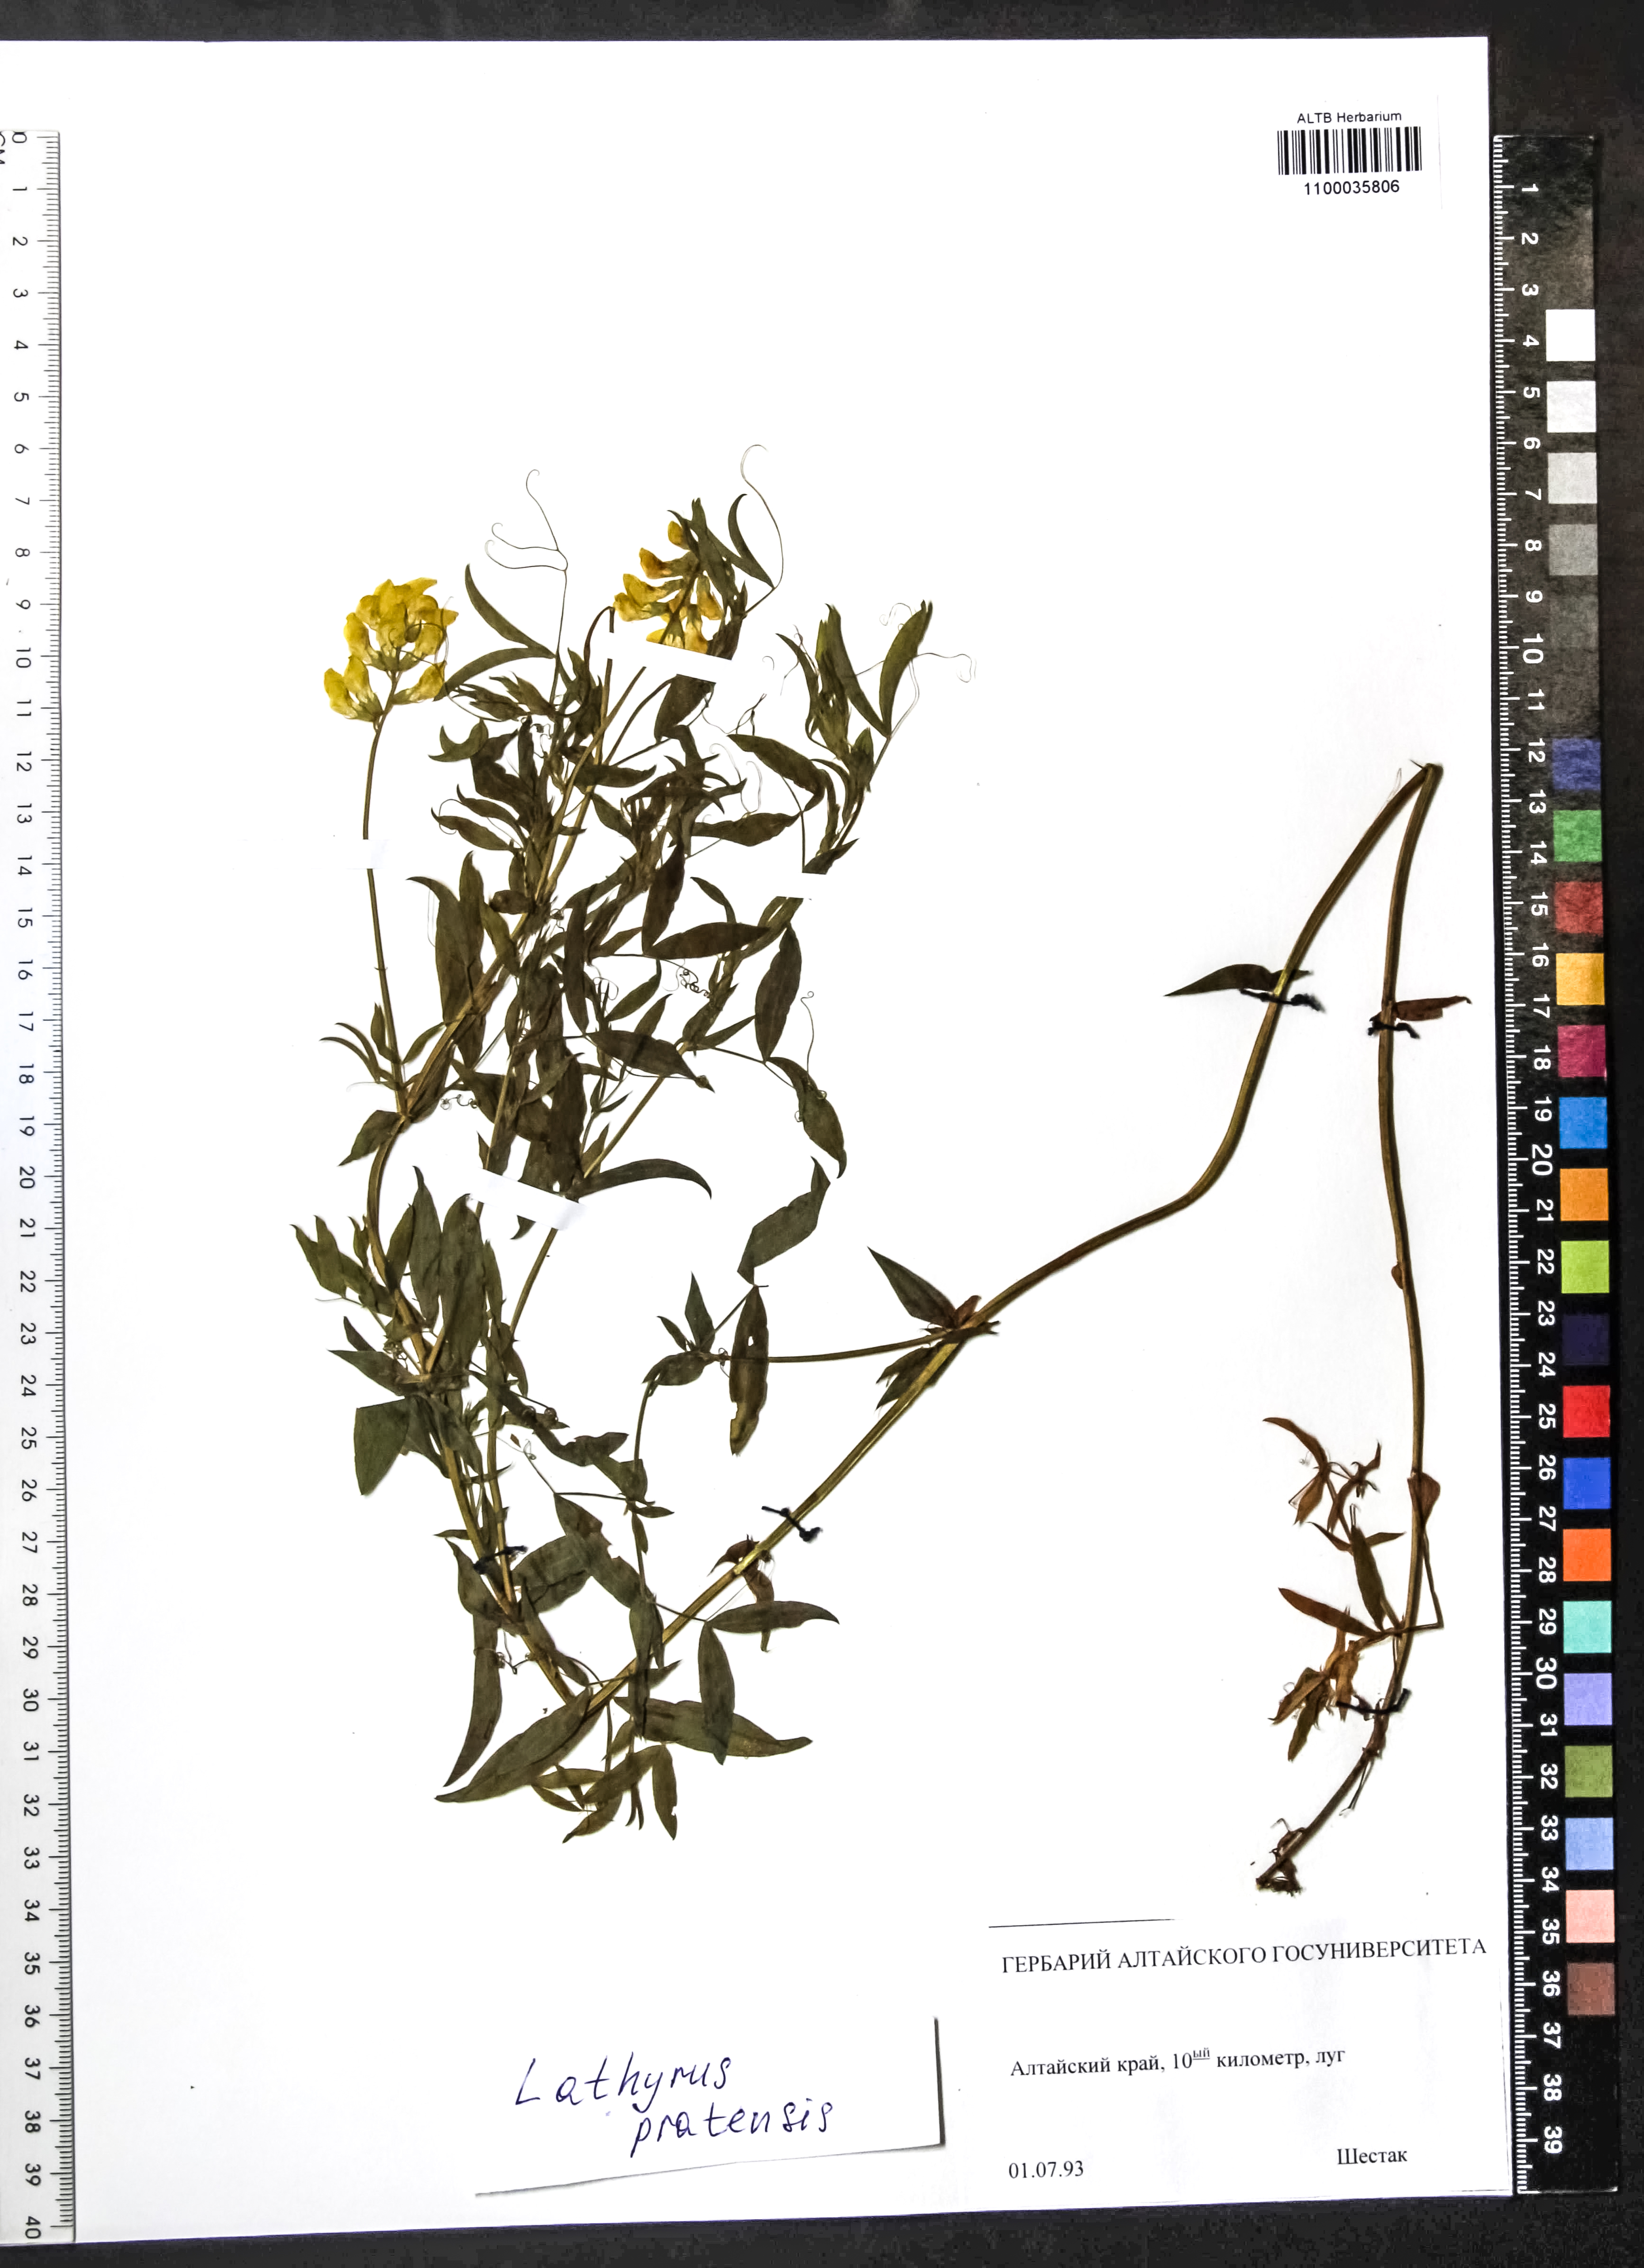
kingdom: Plantae
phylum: Tracheophyta
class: Magnoliopsida
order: Fabales
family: Fabaceae
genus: Lathyrus
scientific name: Lathyrus pratensis
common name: Meadow vetchling
